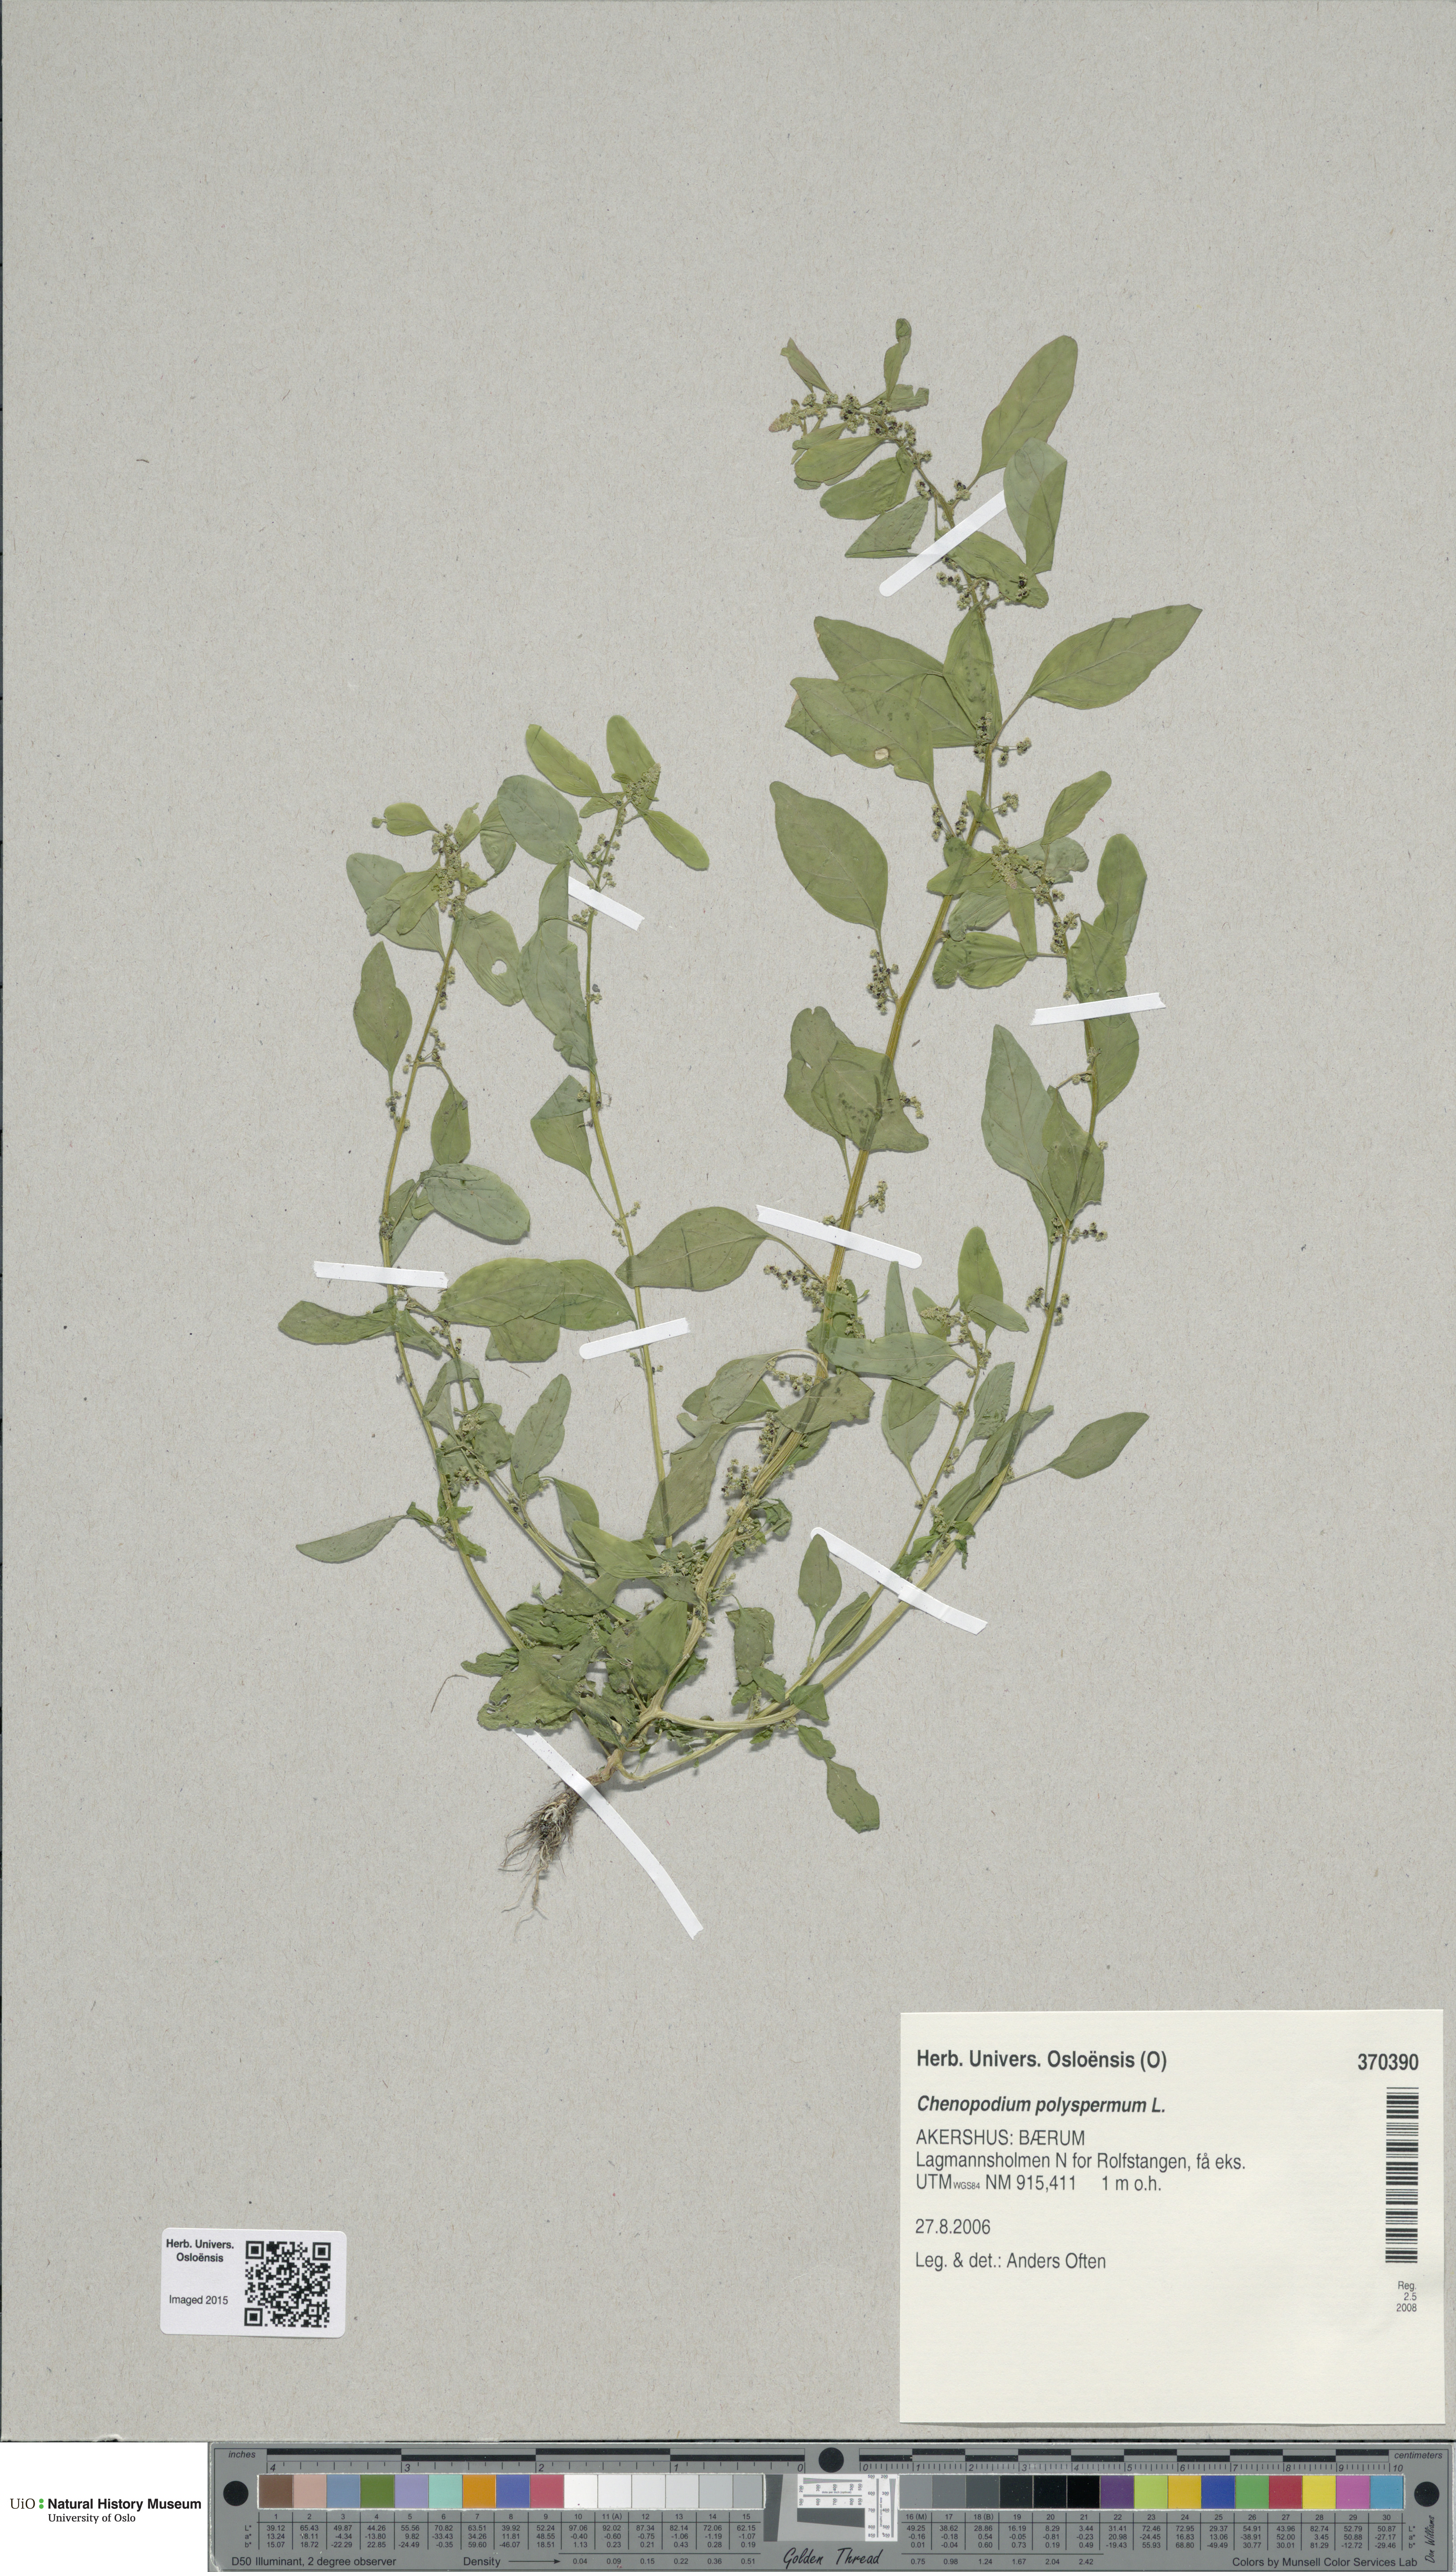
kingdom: Plantae
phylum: Tracheophyta
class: Magnoliopsida
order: Caryophyllales
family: Amaranthaceae
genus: Lipandra
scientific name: Lipandra polysperma
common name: Many-seed goosefoot
